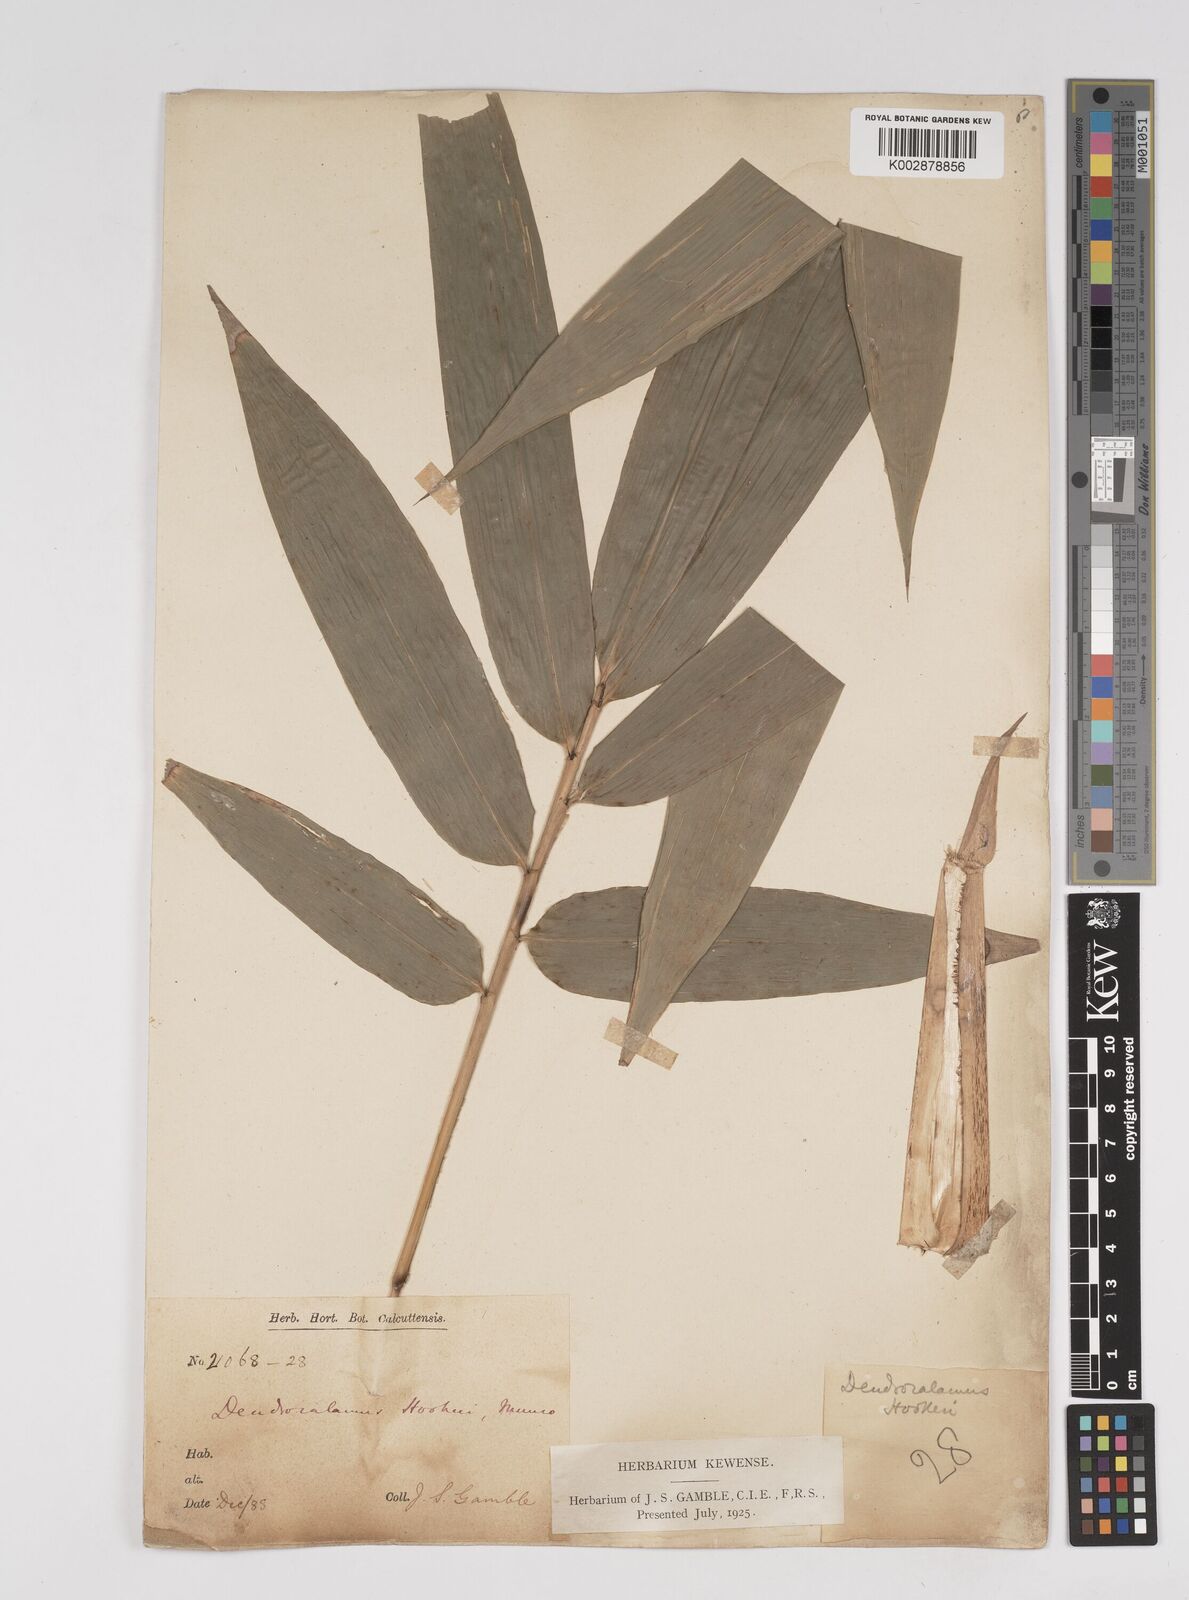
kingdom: Plantae
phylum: Tracheophyta
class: Liliopsida
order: Poales
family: Poaceae
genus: Dendrocalamus
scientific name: Dendrocalamus hookeri
